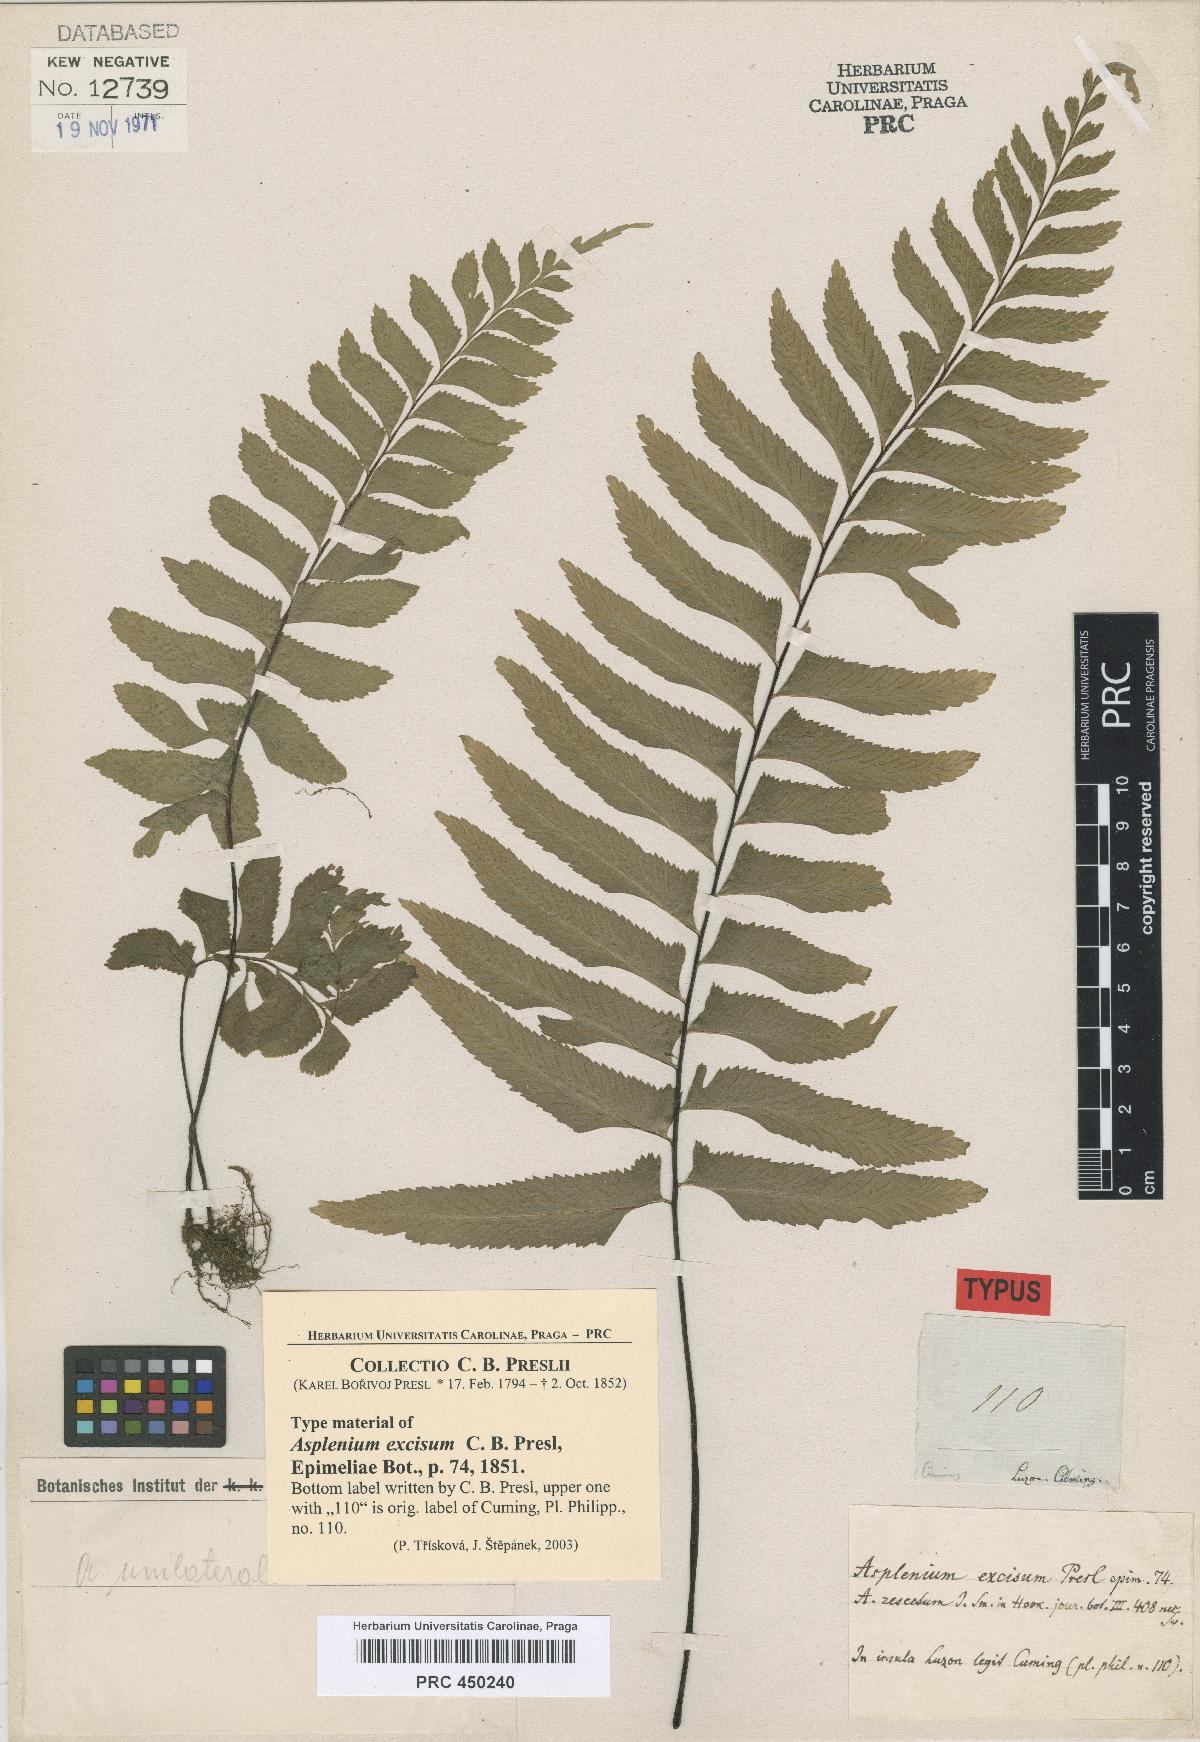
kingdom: Plantae
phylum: Tracheophyta
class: Polypodiopsida
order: Polypodiales
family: Aspleniaceae
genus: Hymenasplenium
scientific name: Hymenasplenium excisum
